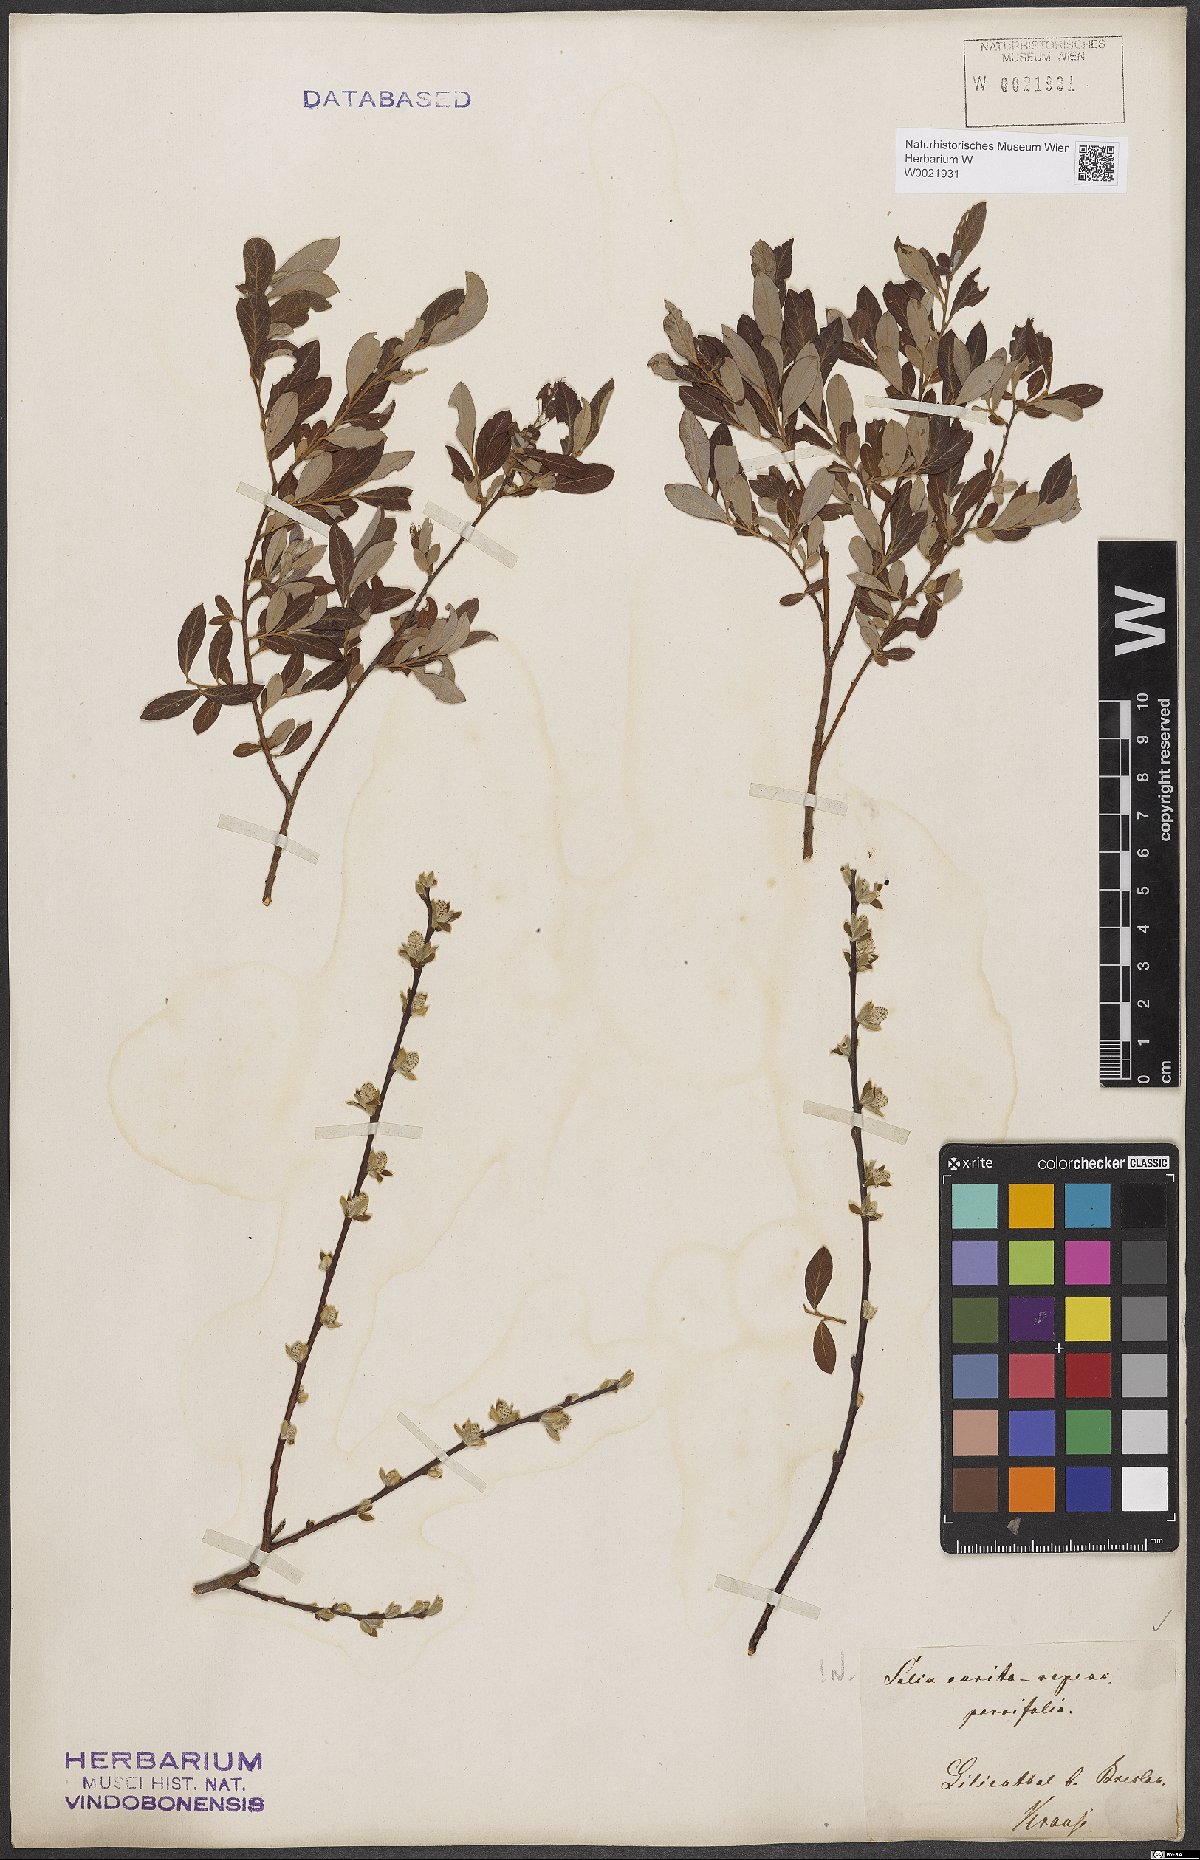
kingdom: Plantae
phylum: Tracheophyta
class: Magnoliopsida
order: Malpighiales
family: Salicaceae
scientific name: Salicaceae
